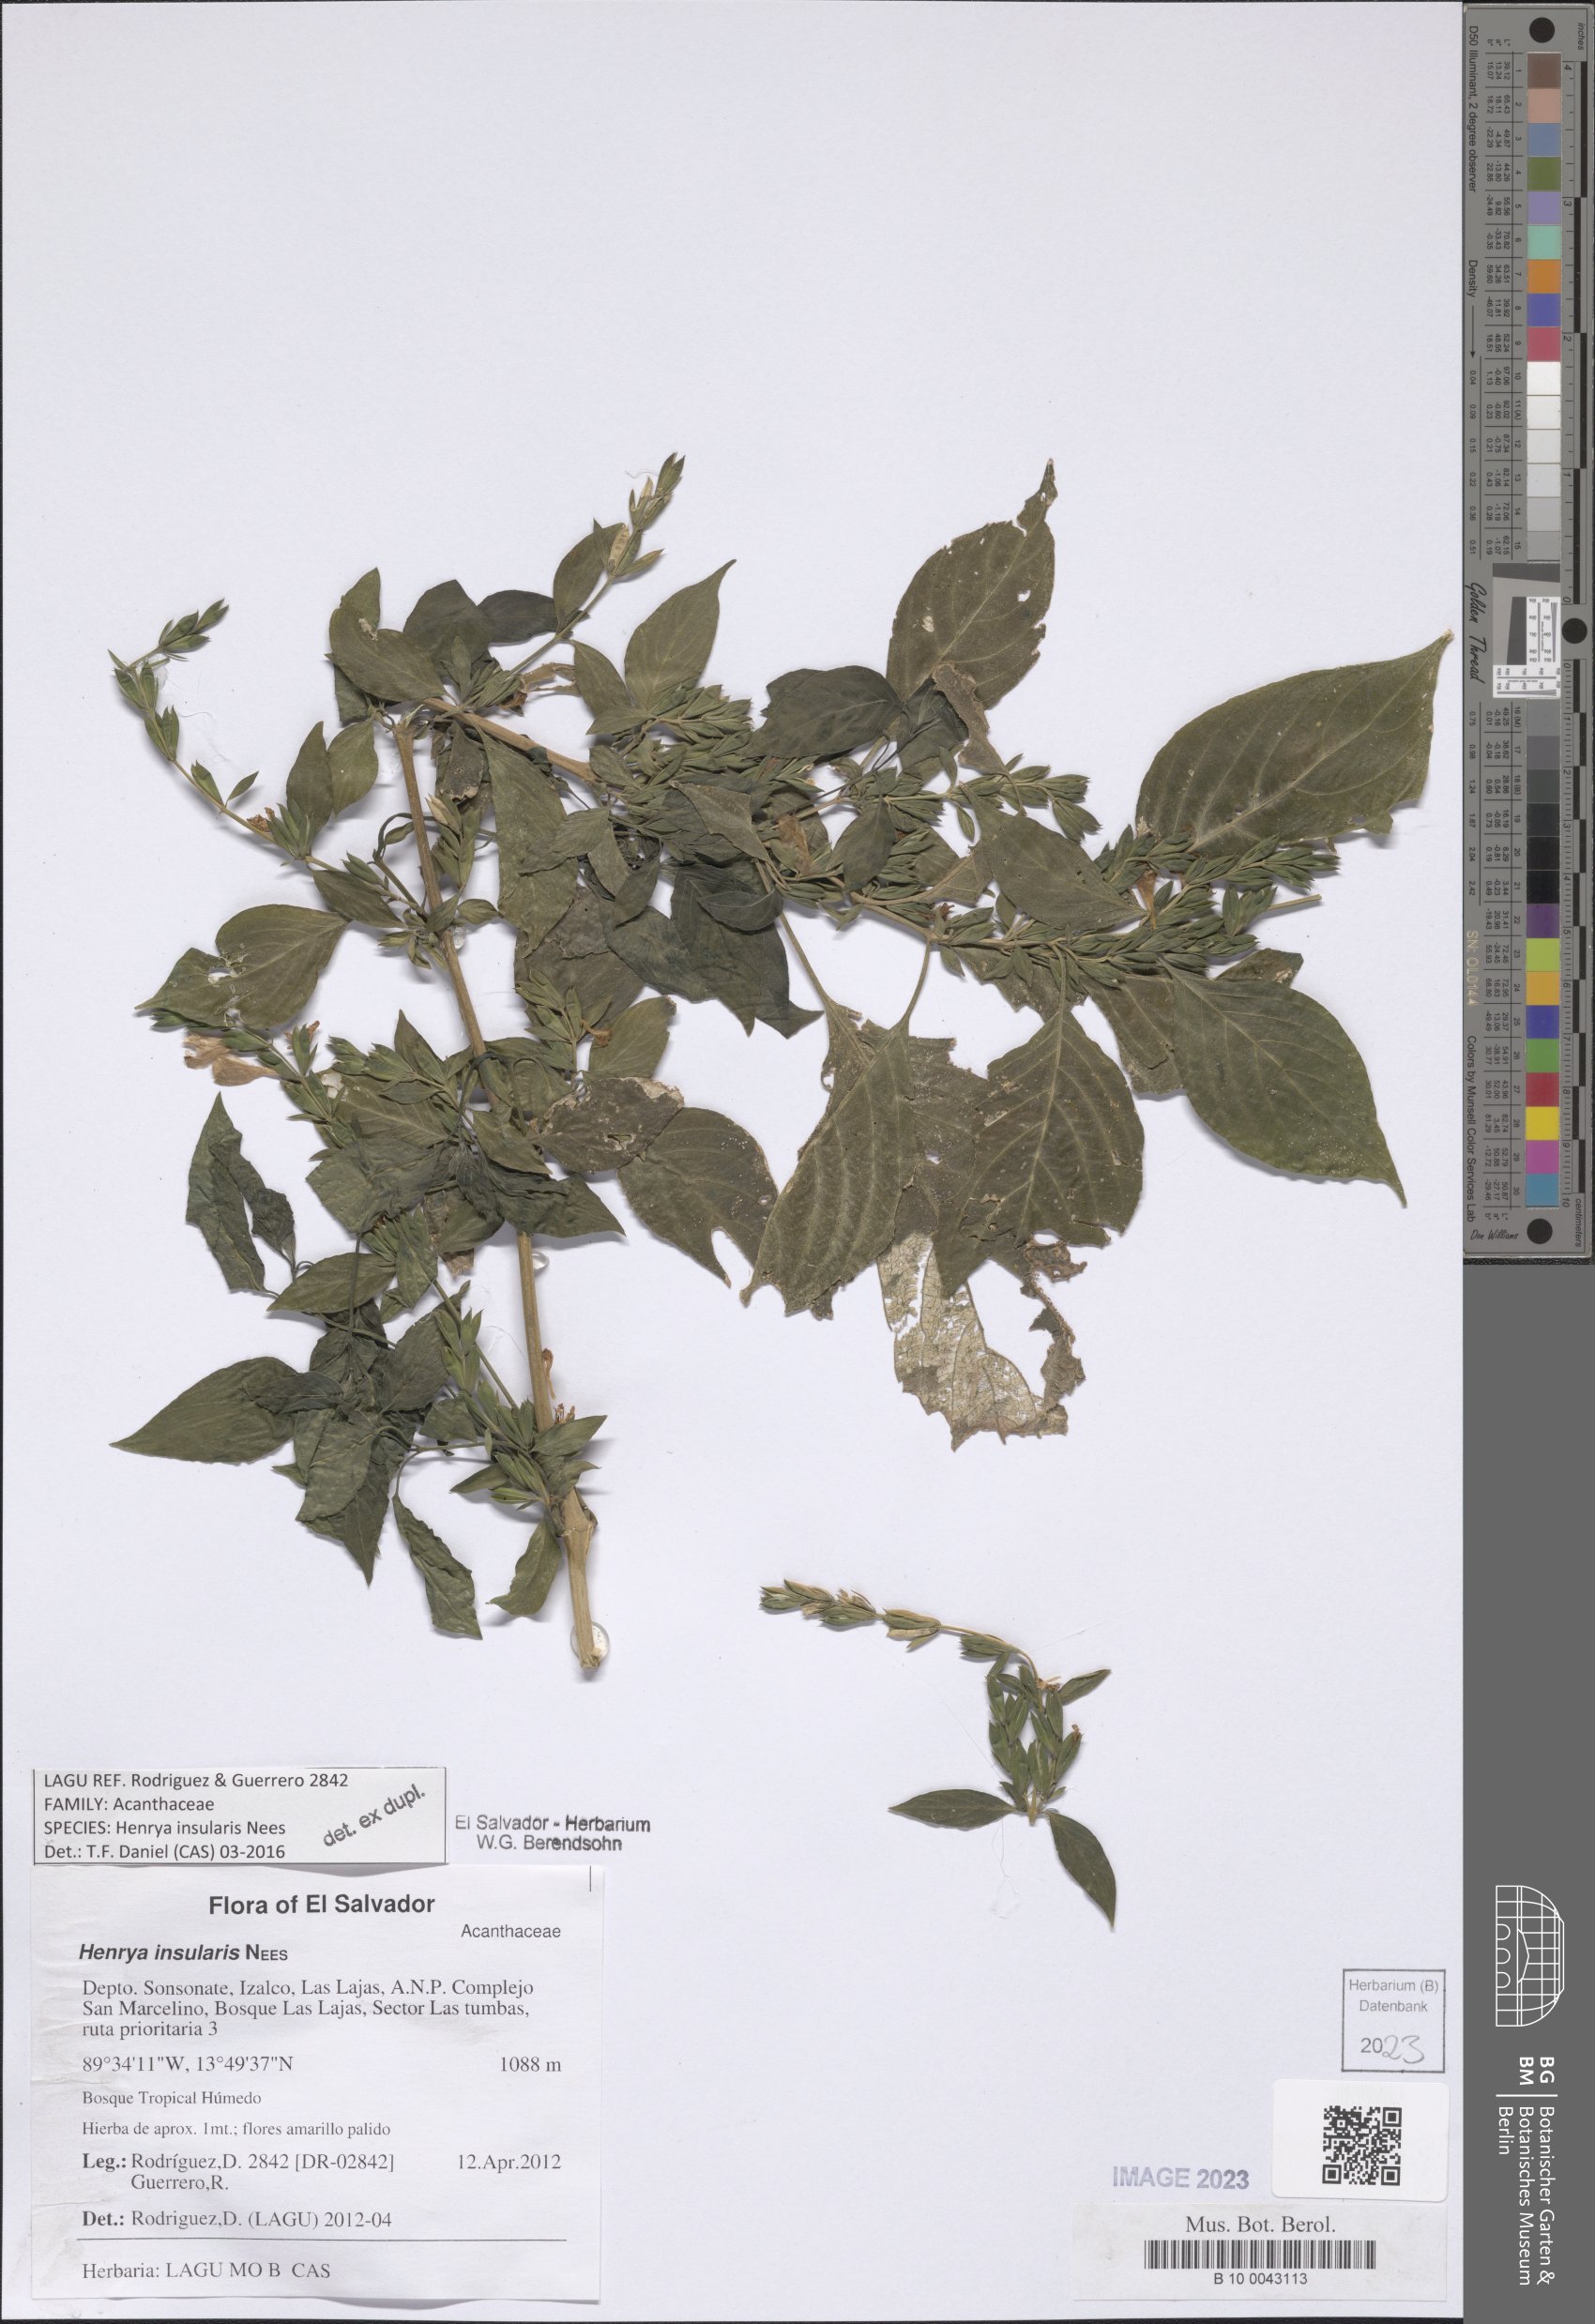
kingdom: Plantae
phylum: Tracheophyta
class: Magnoliopsida
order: Lamiales
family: Acanthaceae
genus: Henrya
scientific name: Henrya insularis
